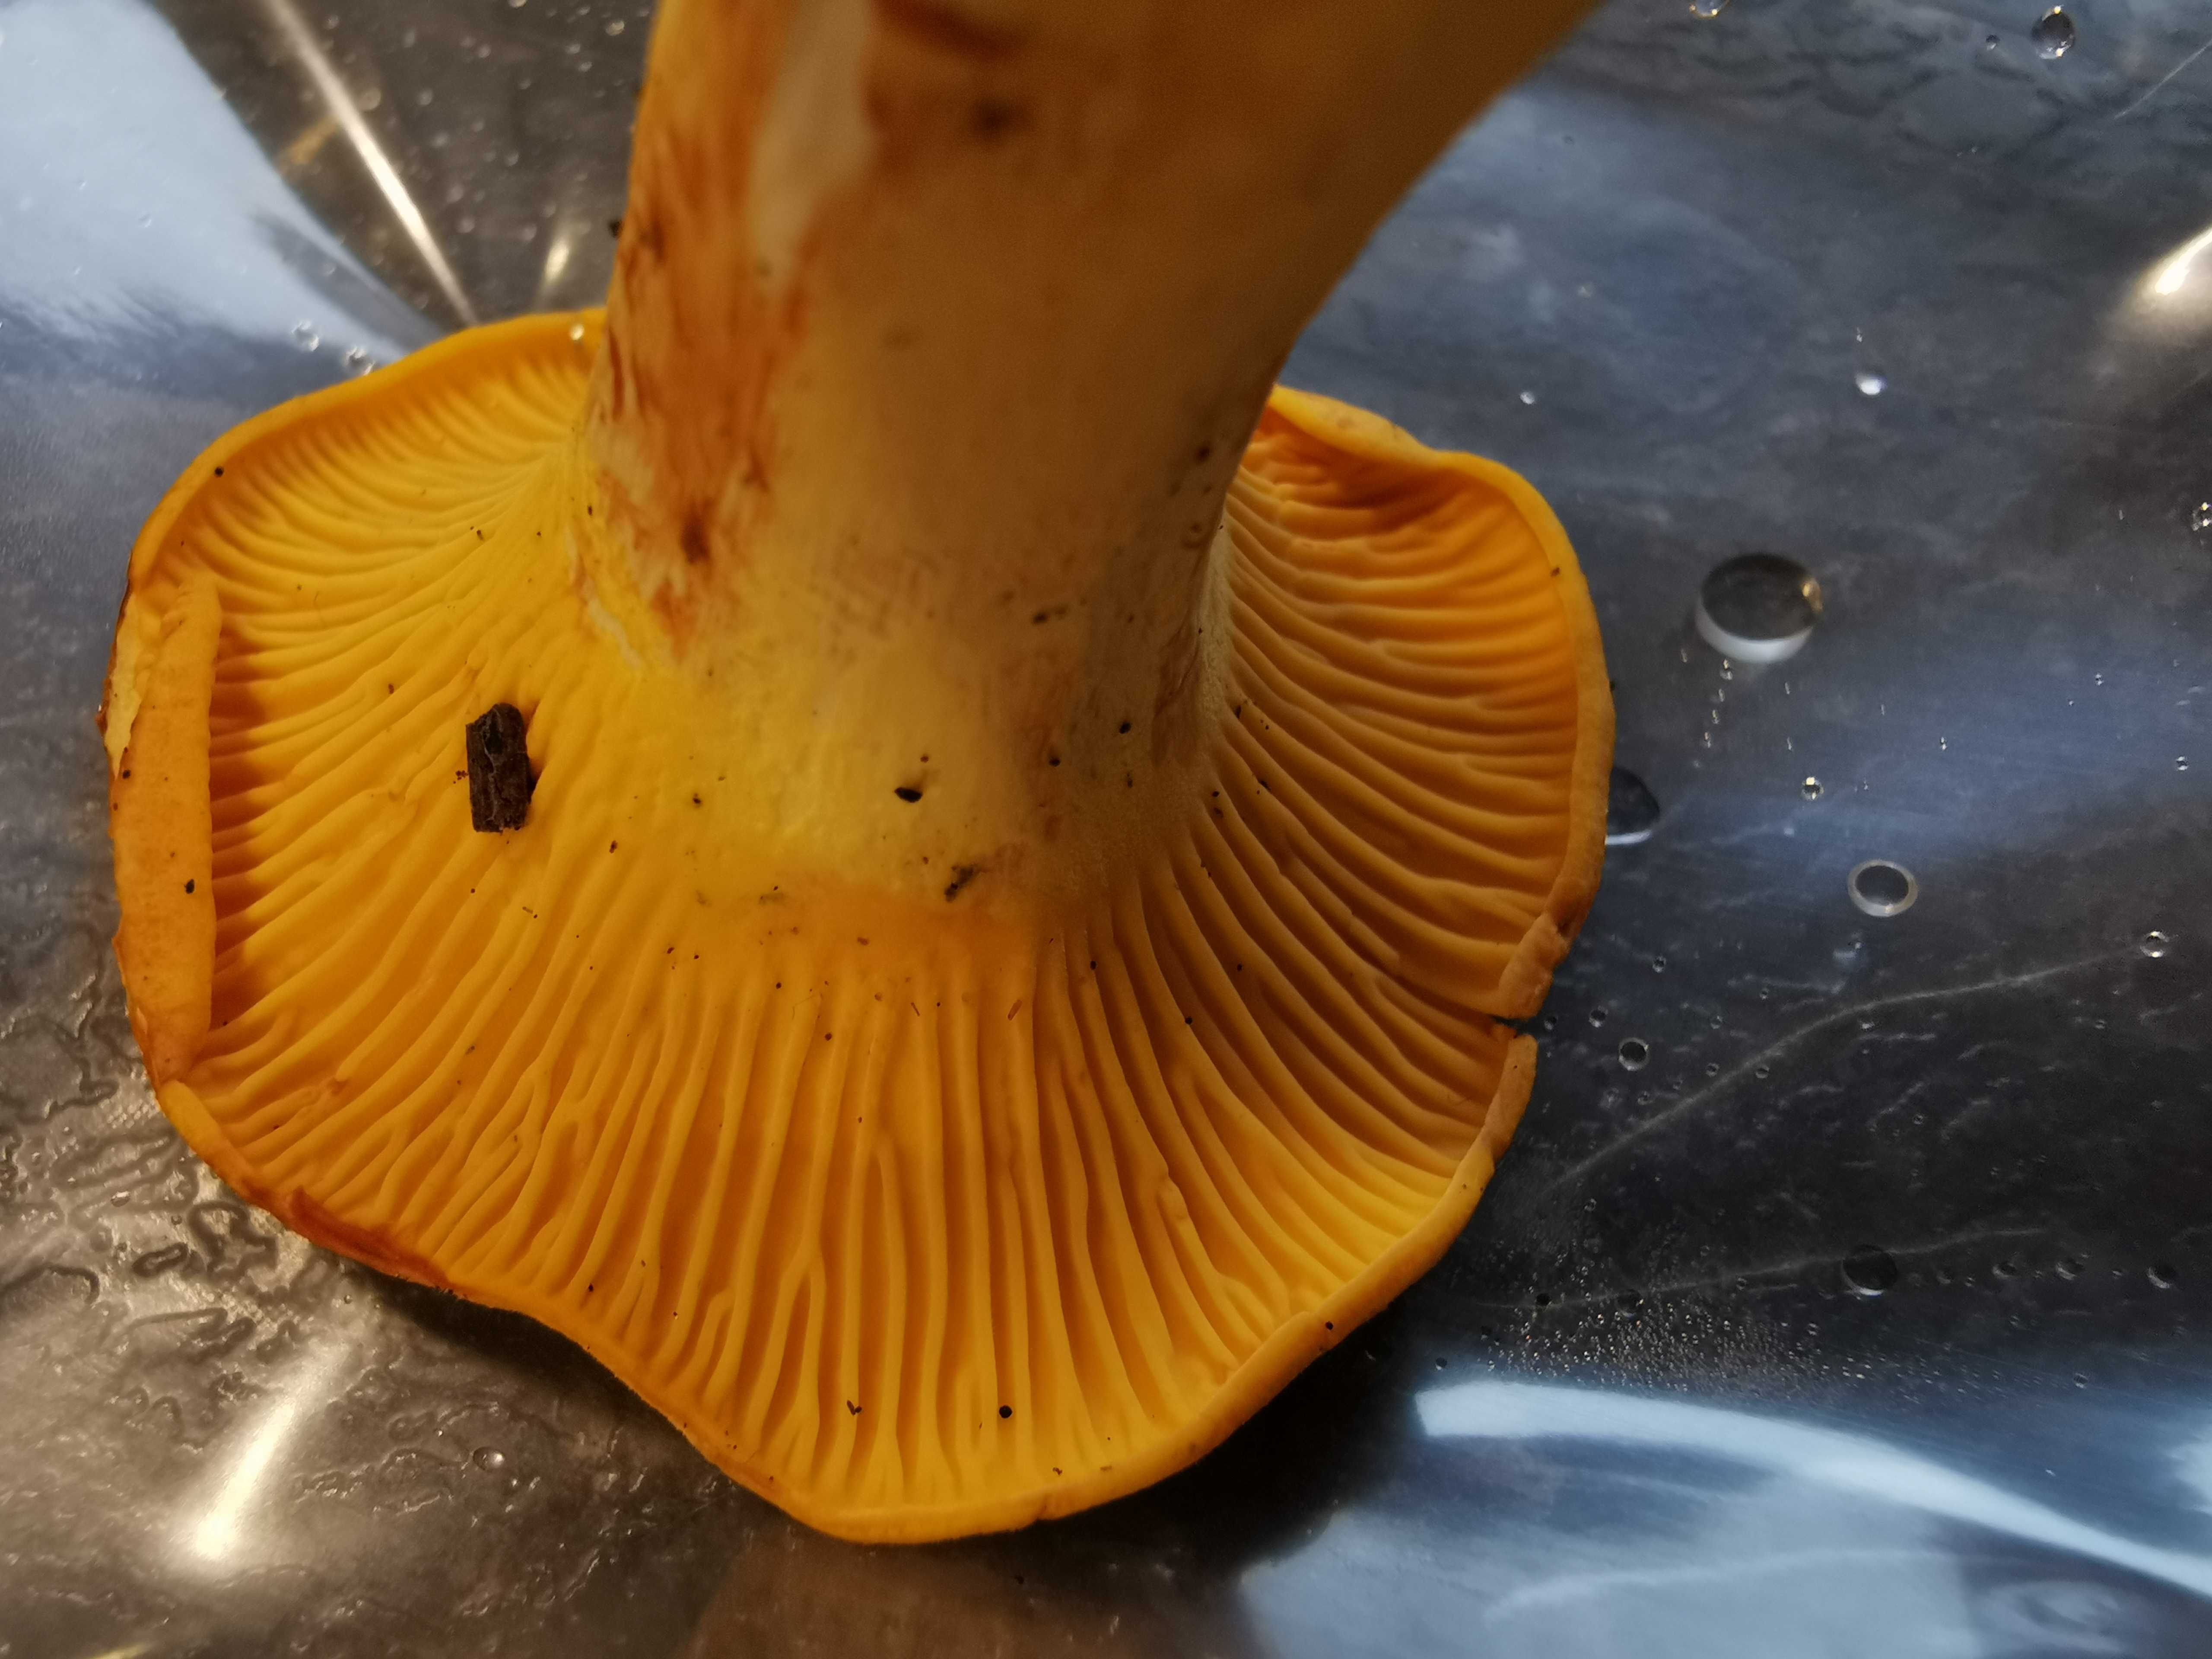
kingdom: Fungi
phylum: Basidiomycota
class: Agaricomycetes
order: Cantharellales
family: Hydnaceae
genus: Cantharellus
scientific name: Cantharellus cibarius
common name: almindelig kantarel
